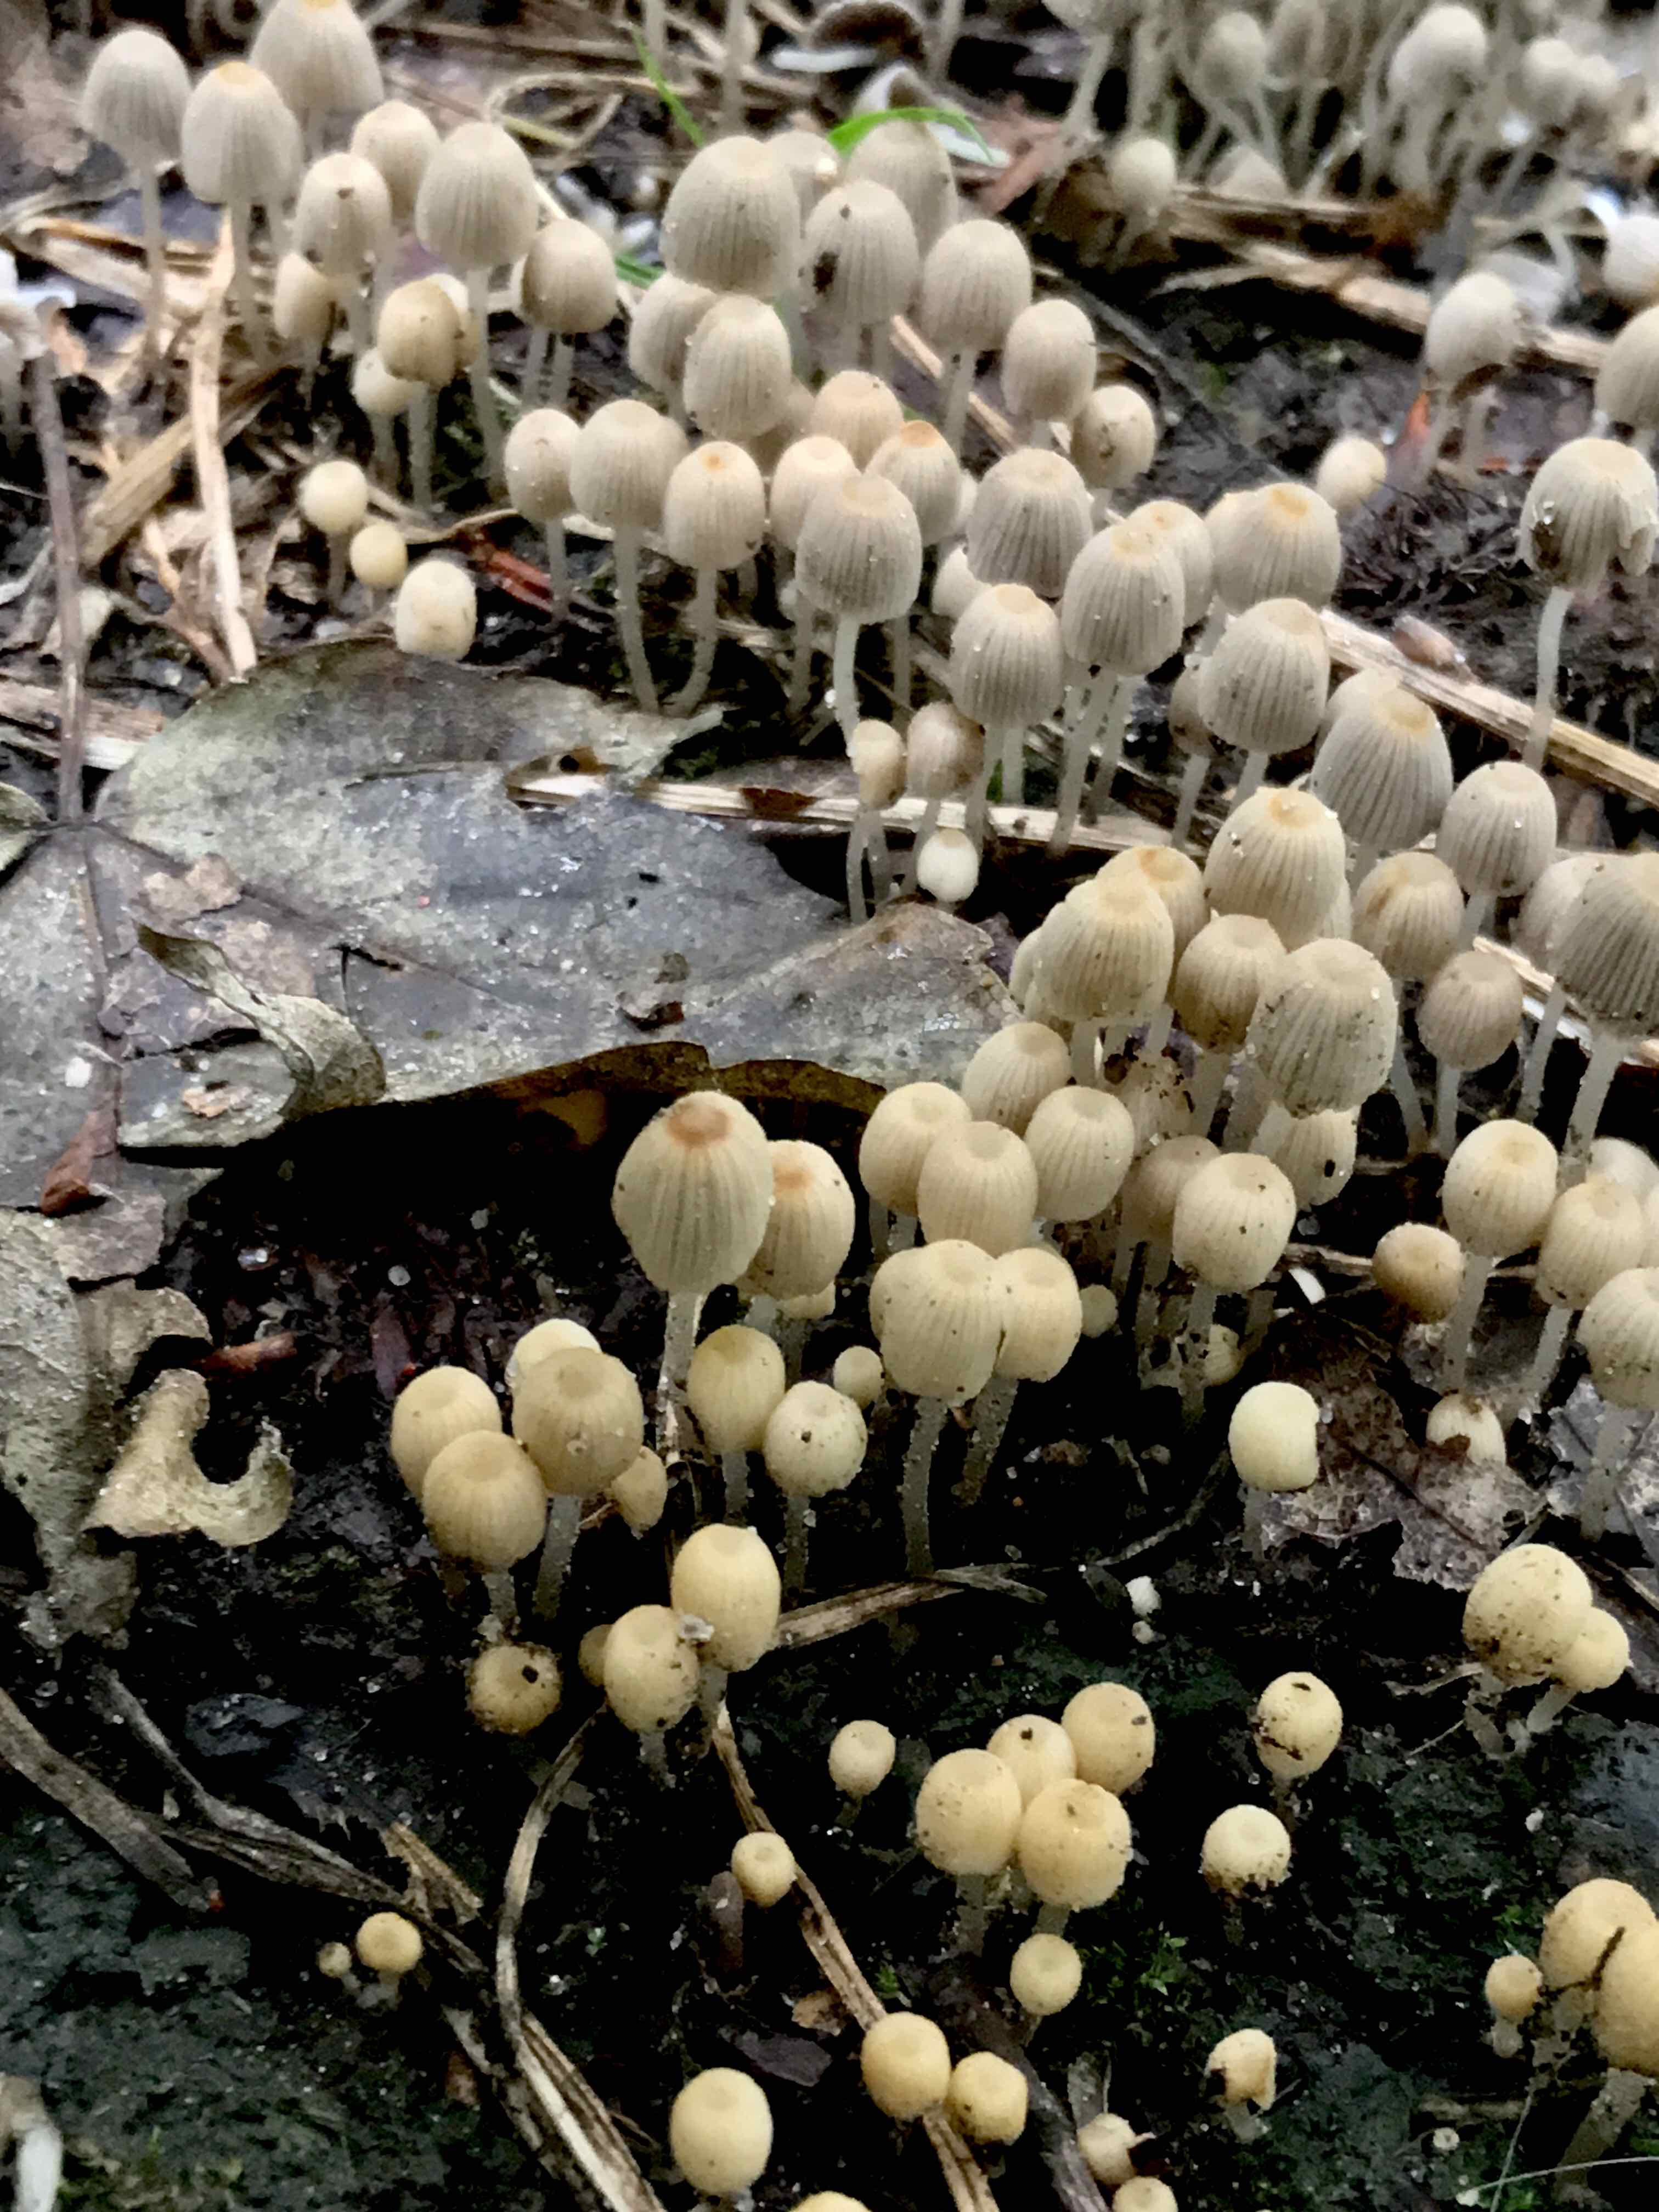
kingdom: Fungi
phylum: Basidiomycota
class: Agaricomycetes
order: Agaricales
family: Psathyrellaceae
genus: Coprinellus
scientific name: Coprinellus disseminatus
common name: bredsået blækhat
